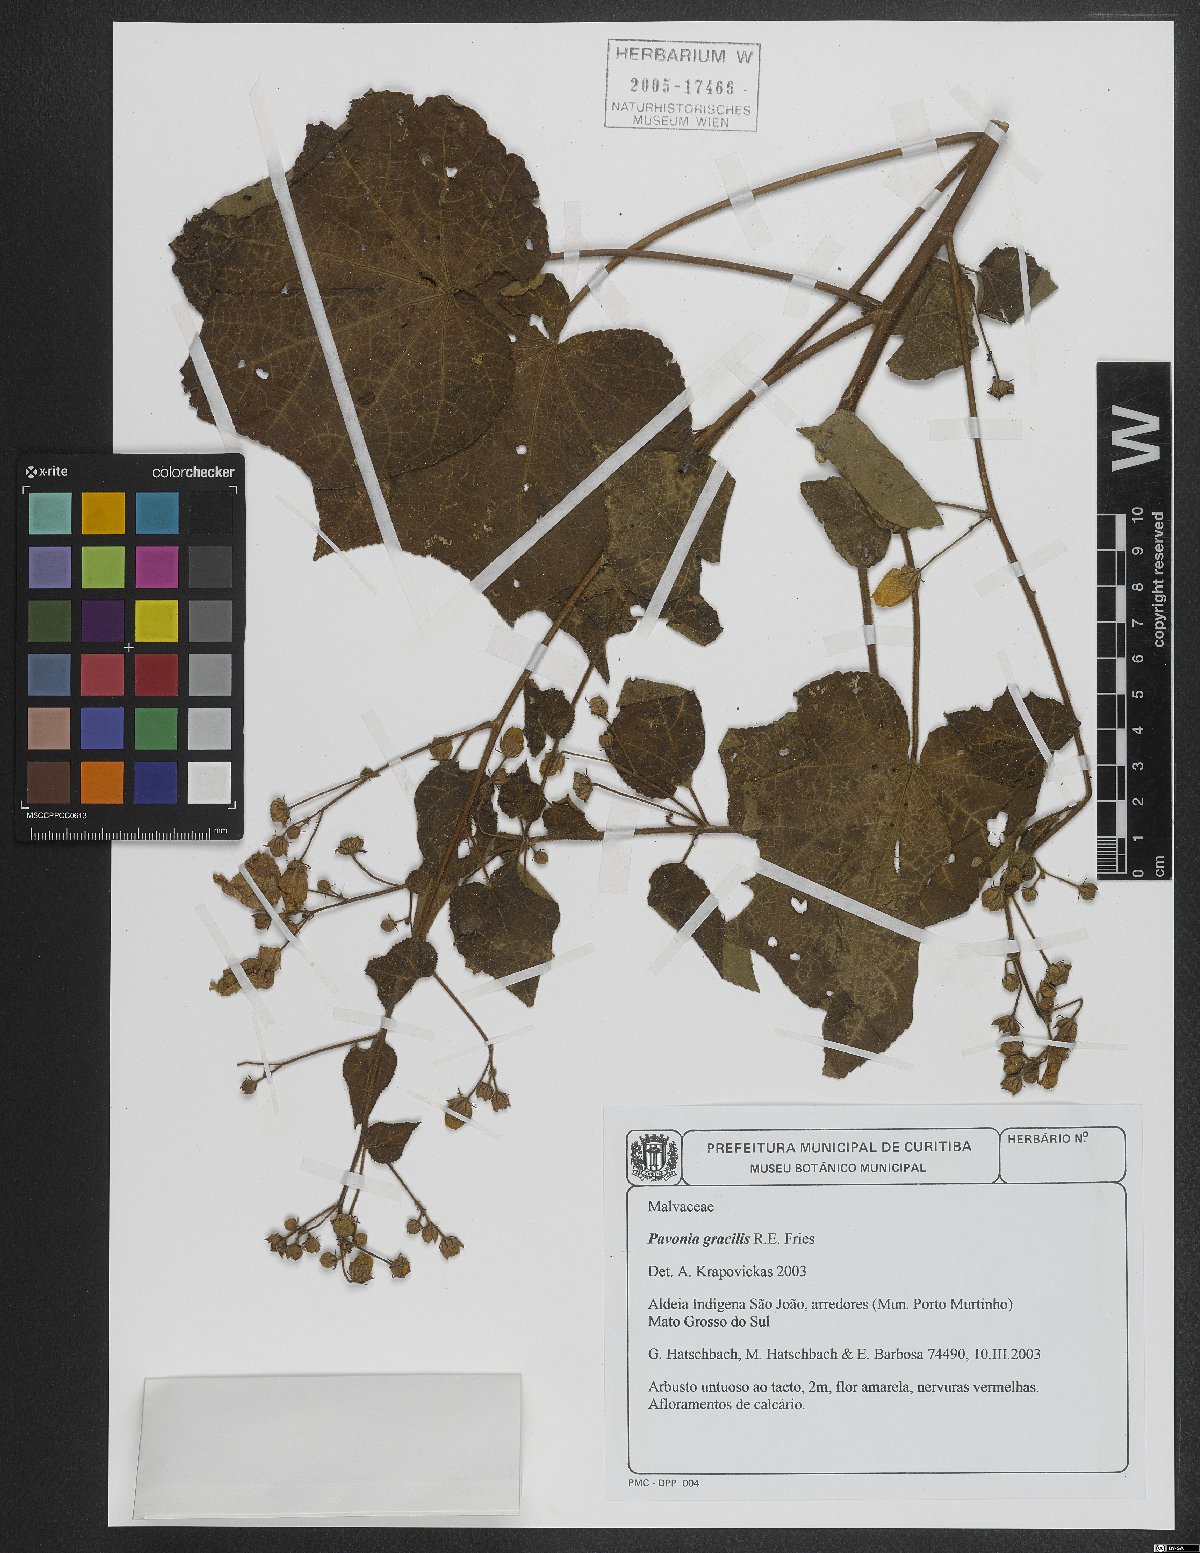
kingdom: Plantae
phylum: Tracheophyta
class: Magnoliopsida
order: Malvales
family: Malvaceae
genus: Pavonia
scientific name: Pavonia gracilis
